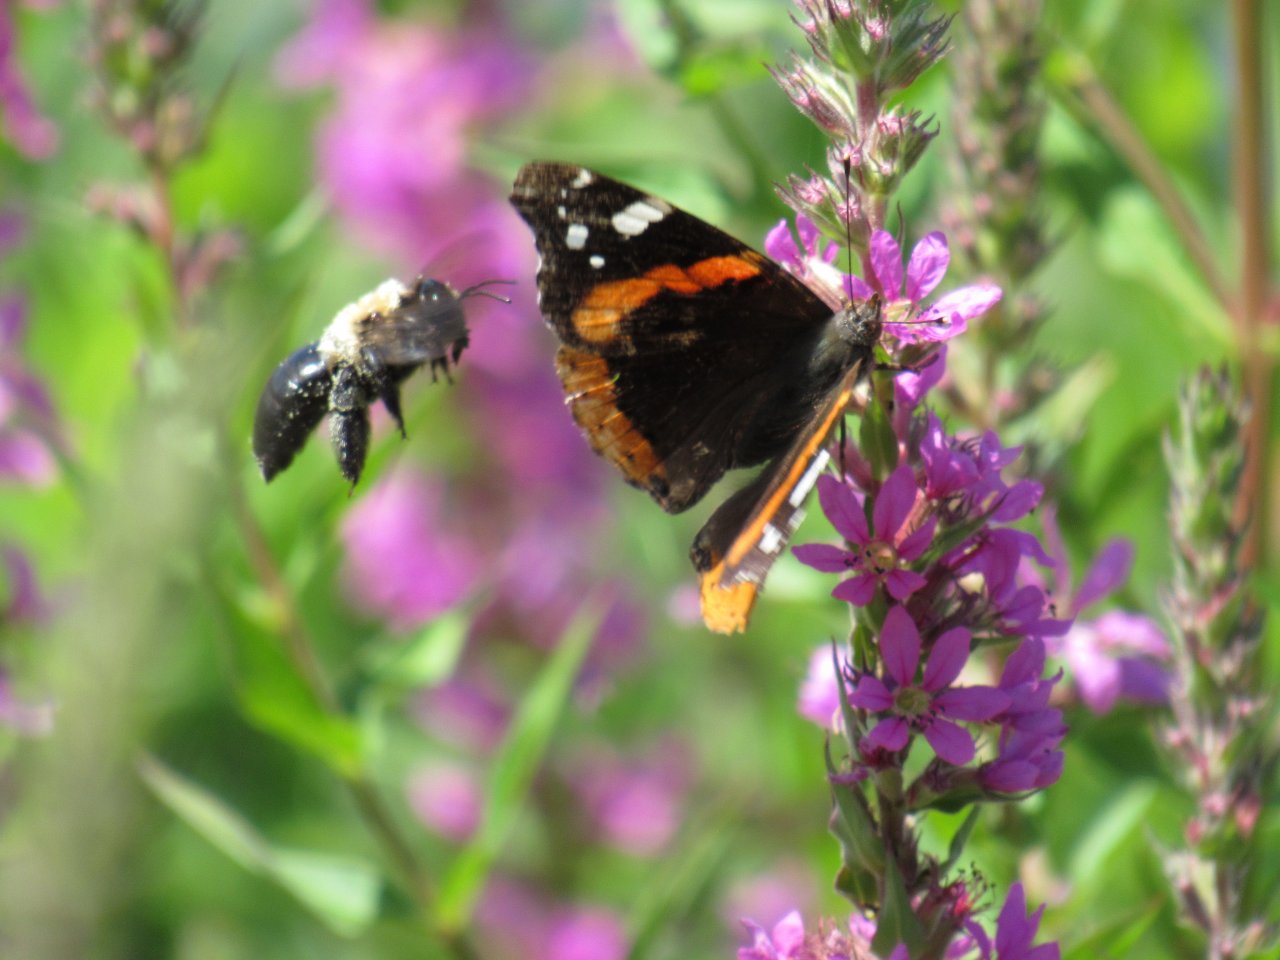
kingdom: Animalia
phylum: Arthropoda
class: Insecta
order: Lepidoptera
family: Nymphalidae
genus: Vanessa
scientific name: Vanessa atalanta
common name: Red Admiral
